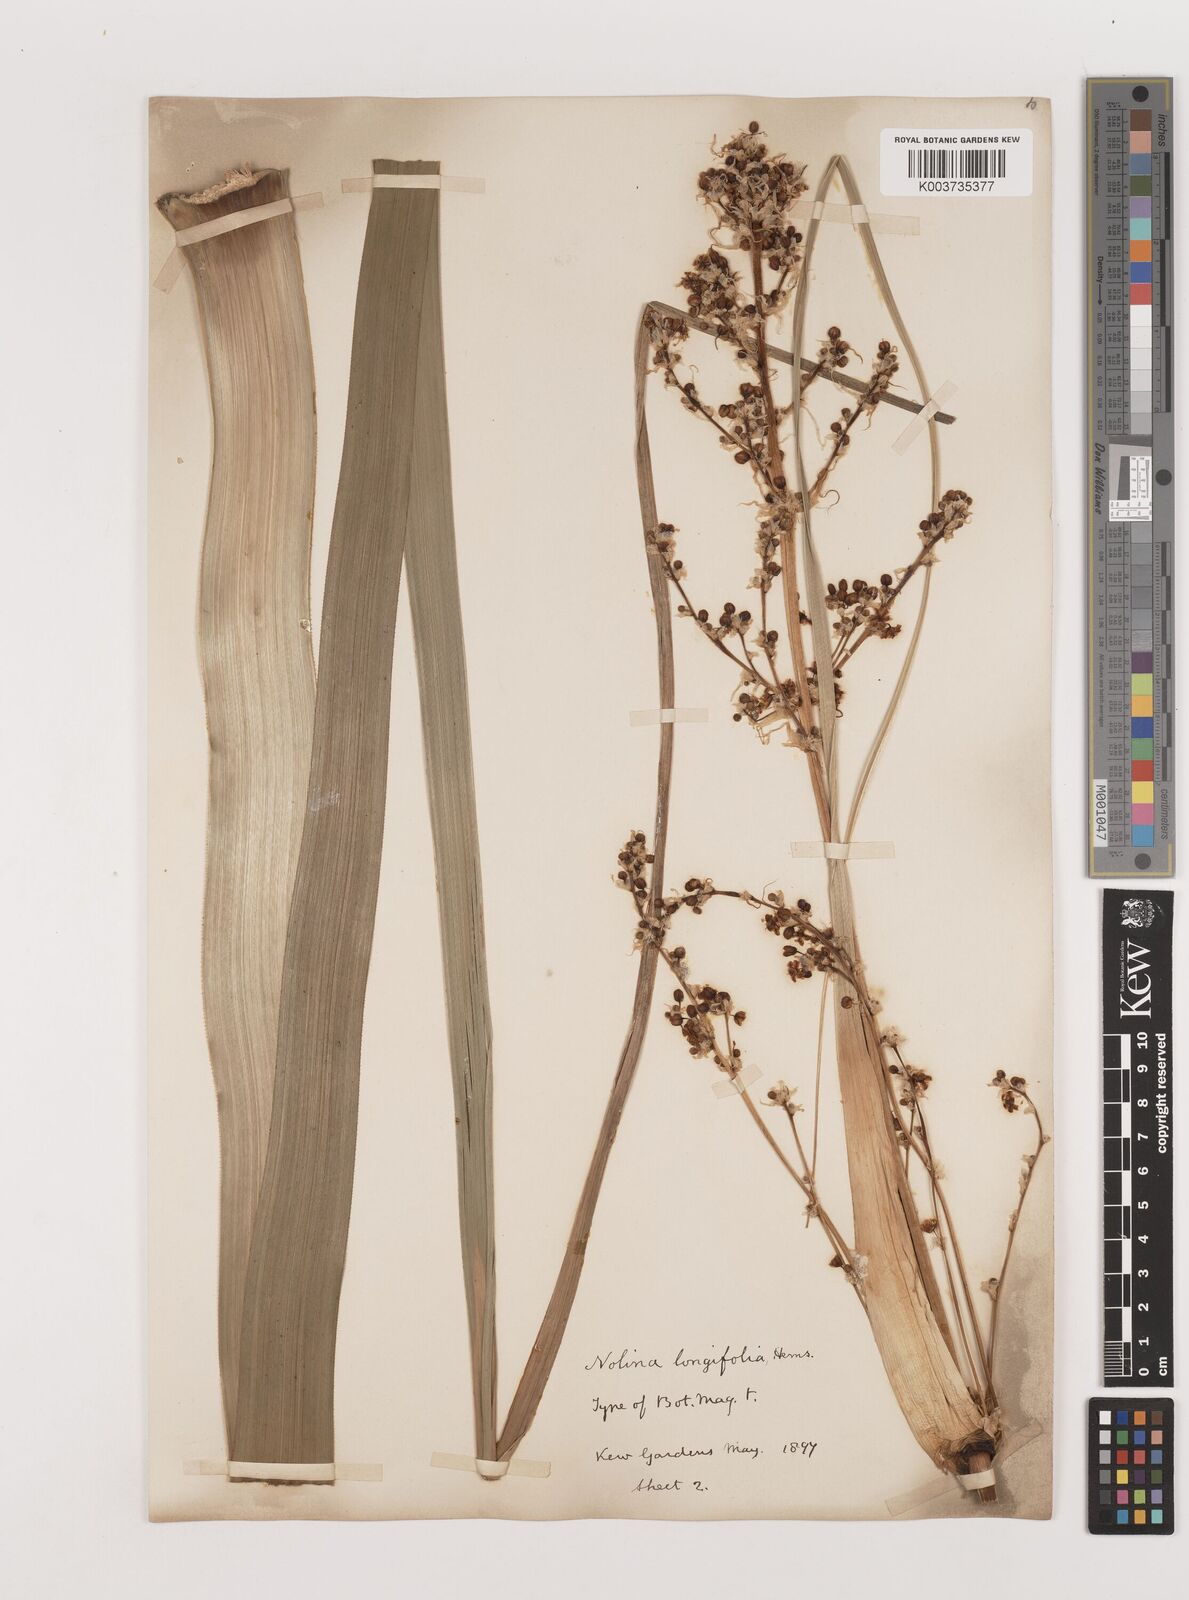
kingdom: Plantae
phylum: Tracheophyta
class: Liliopsida
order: Asparagales
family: Asparagaceae
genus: Nolina
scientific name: Nolina parviflora
